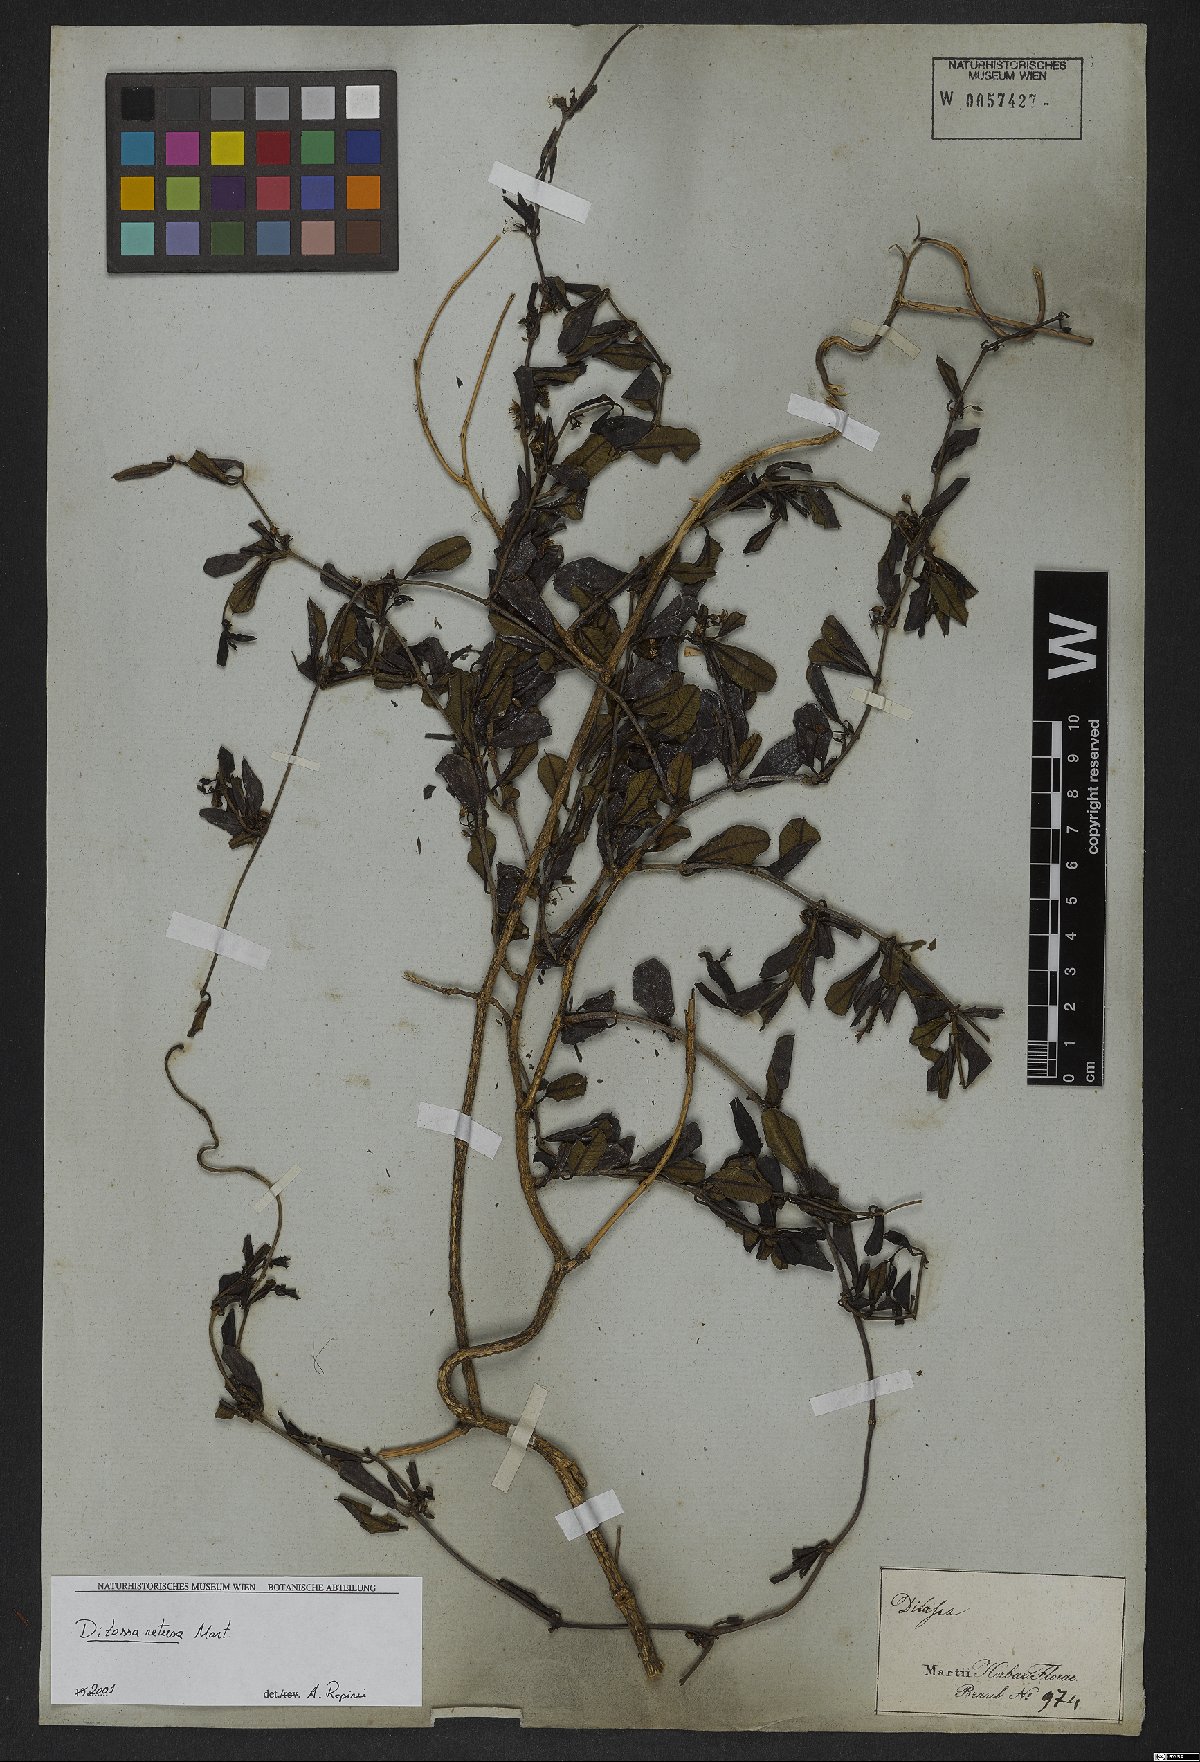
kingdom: Plantae
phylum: Tracheophyta
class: Magnoliopsida
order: Gentianales
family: Apocynaceae
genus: Ditassa
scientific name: Ditassa retusa
